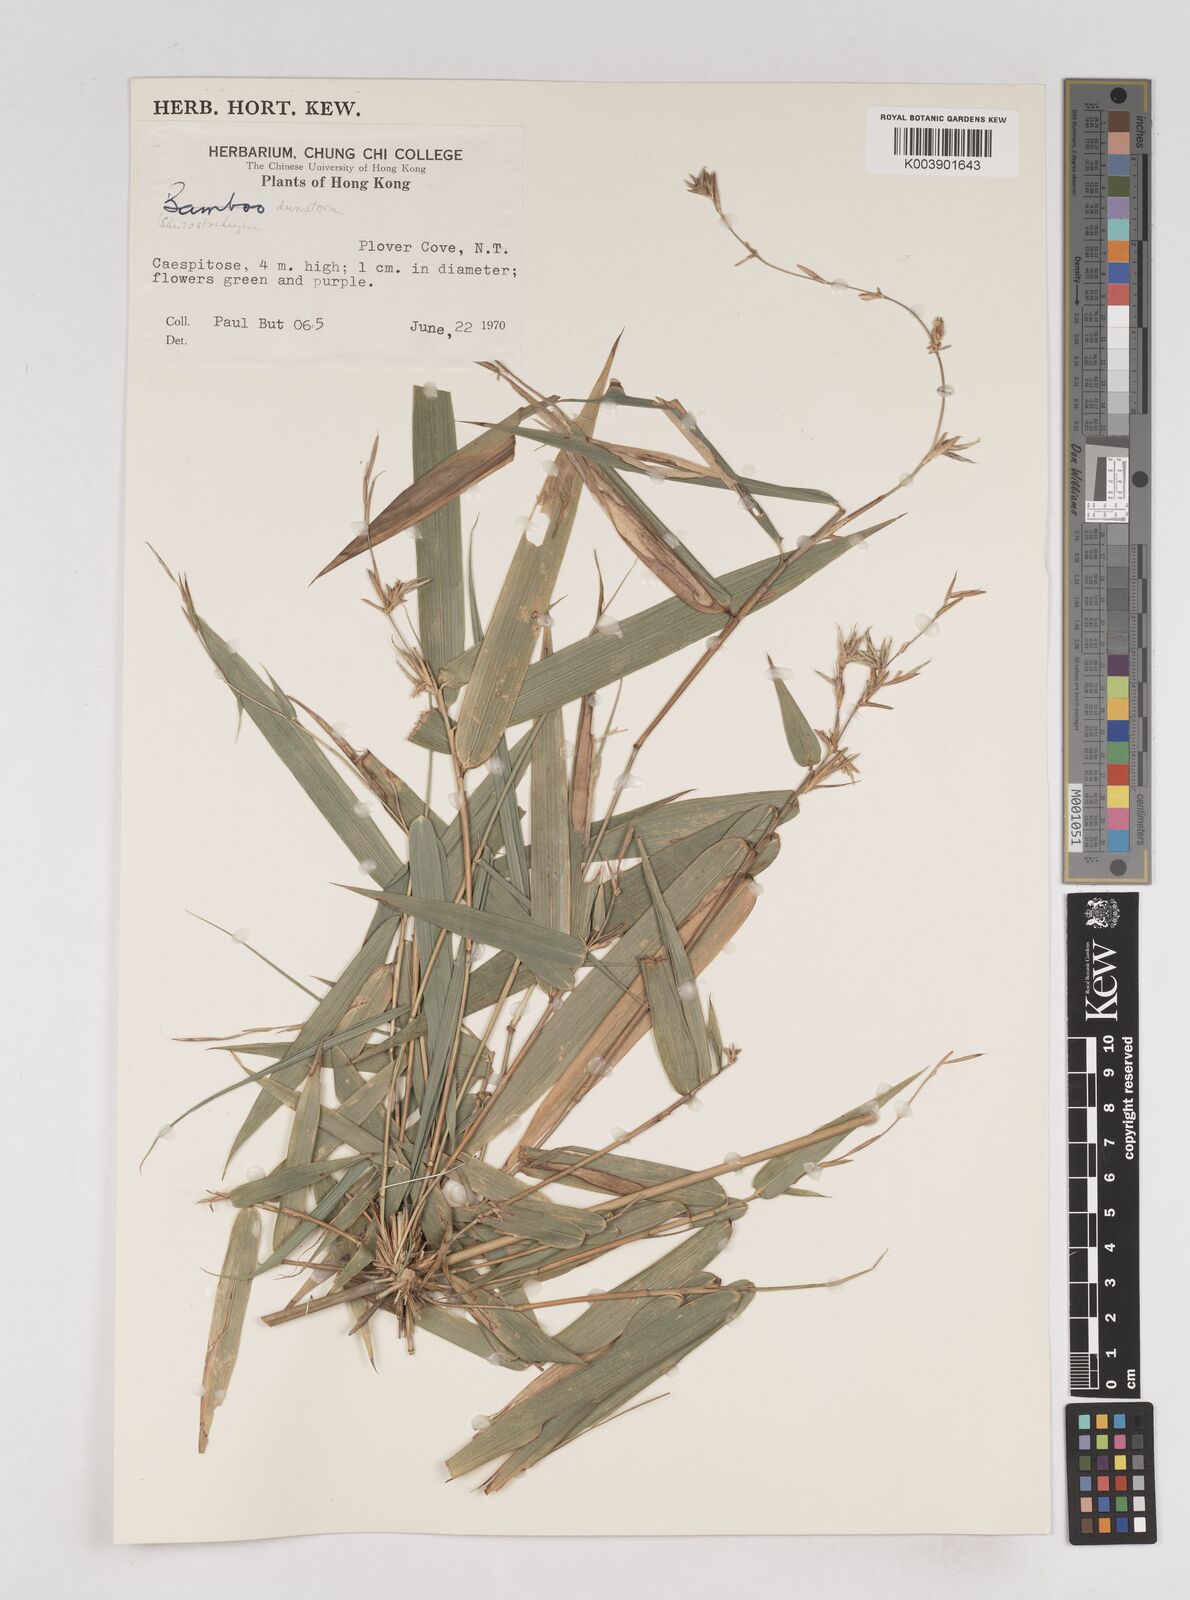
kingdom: Plantae
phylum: Tracheophyta
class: Liliopsida
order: Poales
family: Poaceae
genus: Schizostachyum
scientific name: Schizostachyum dumetorum
